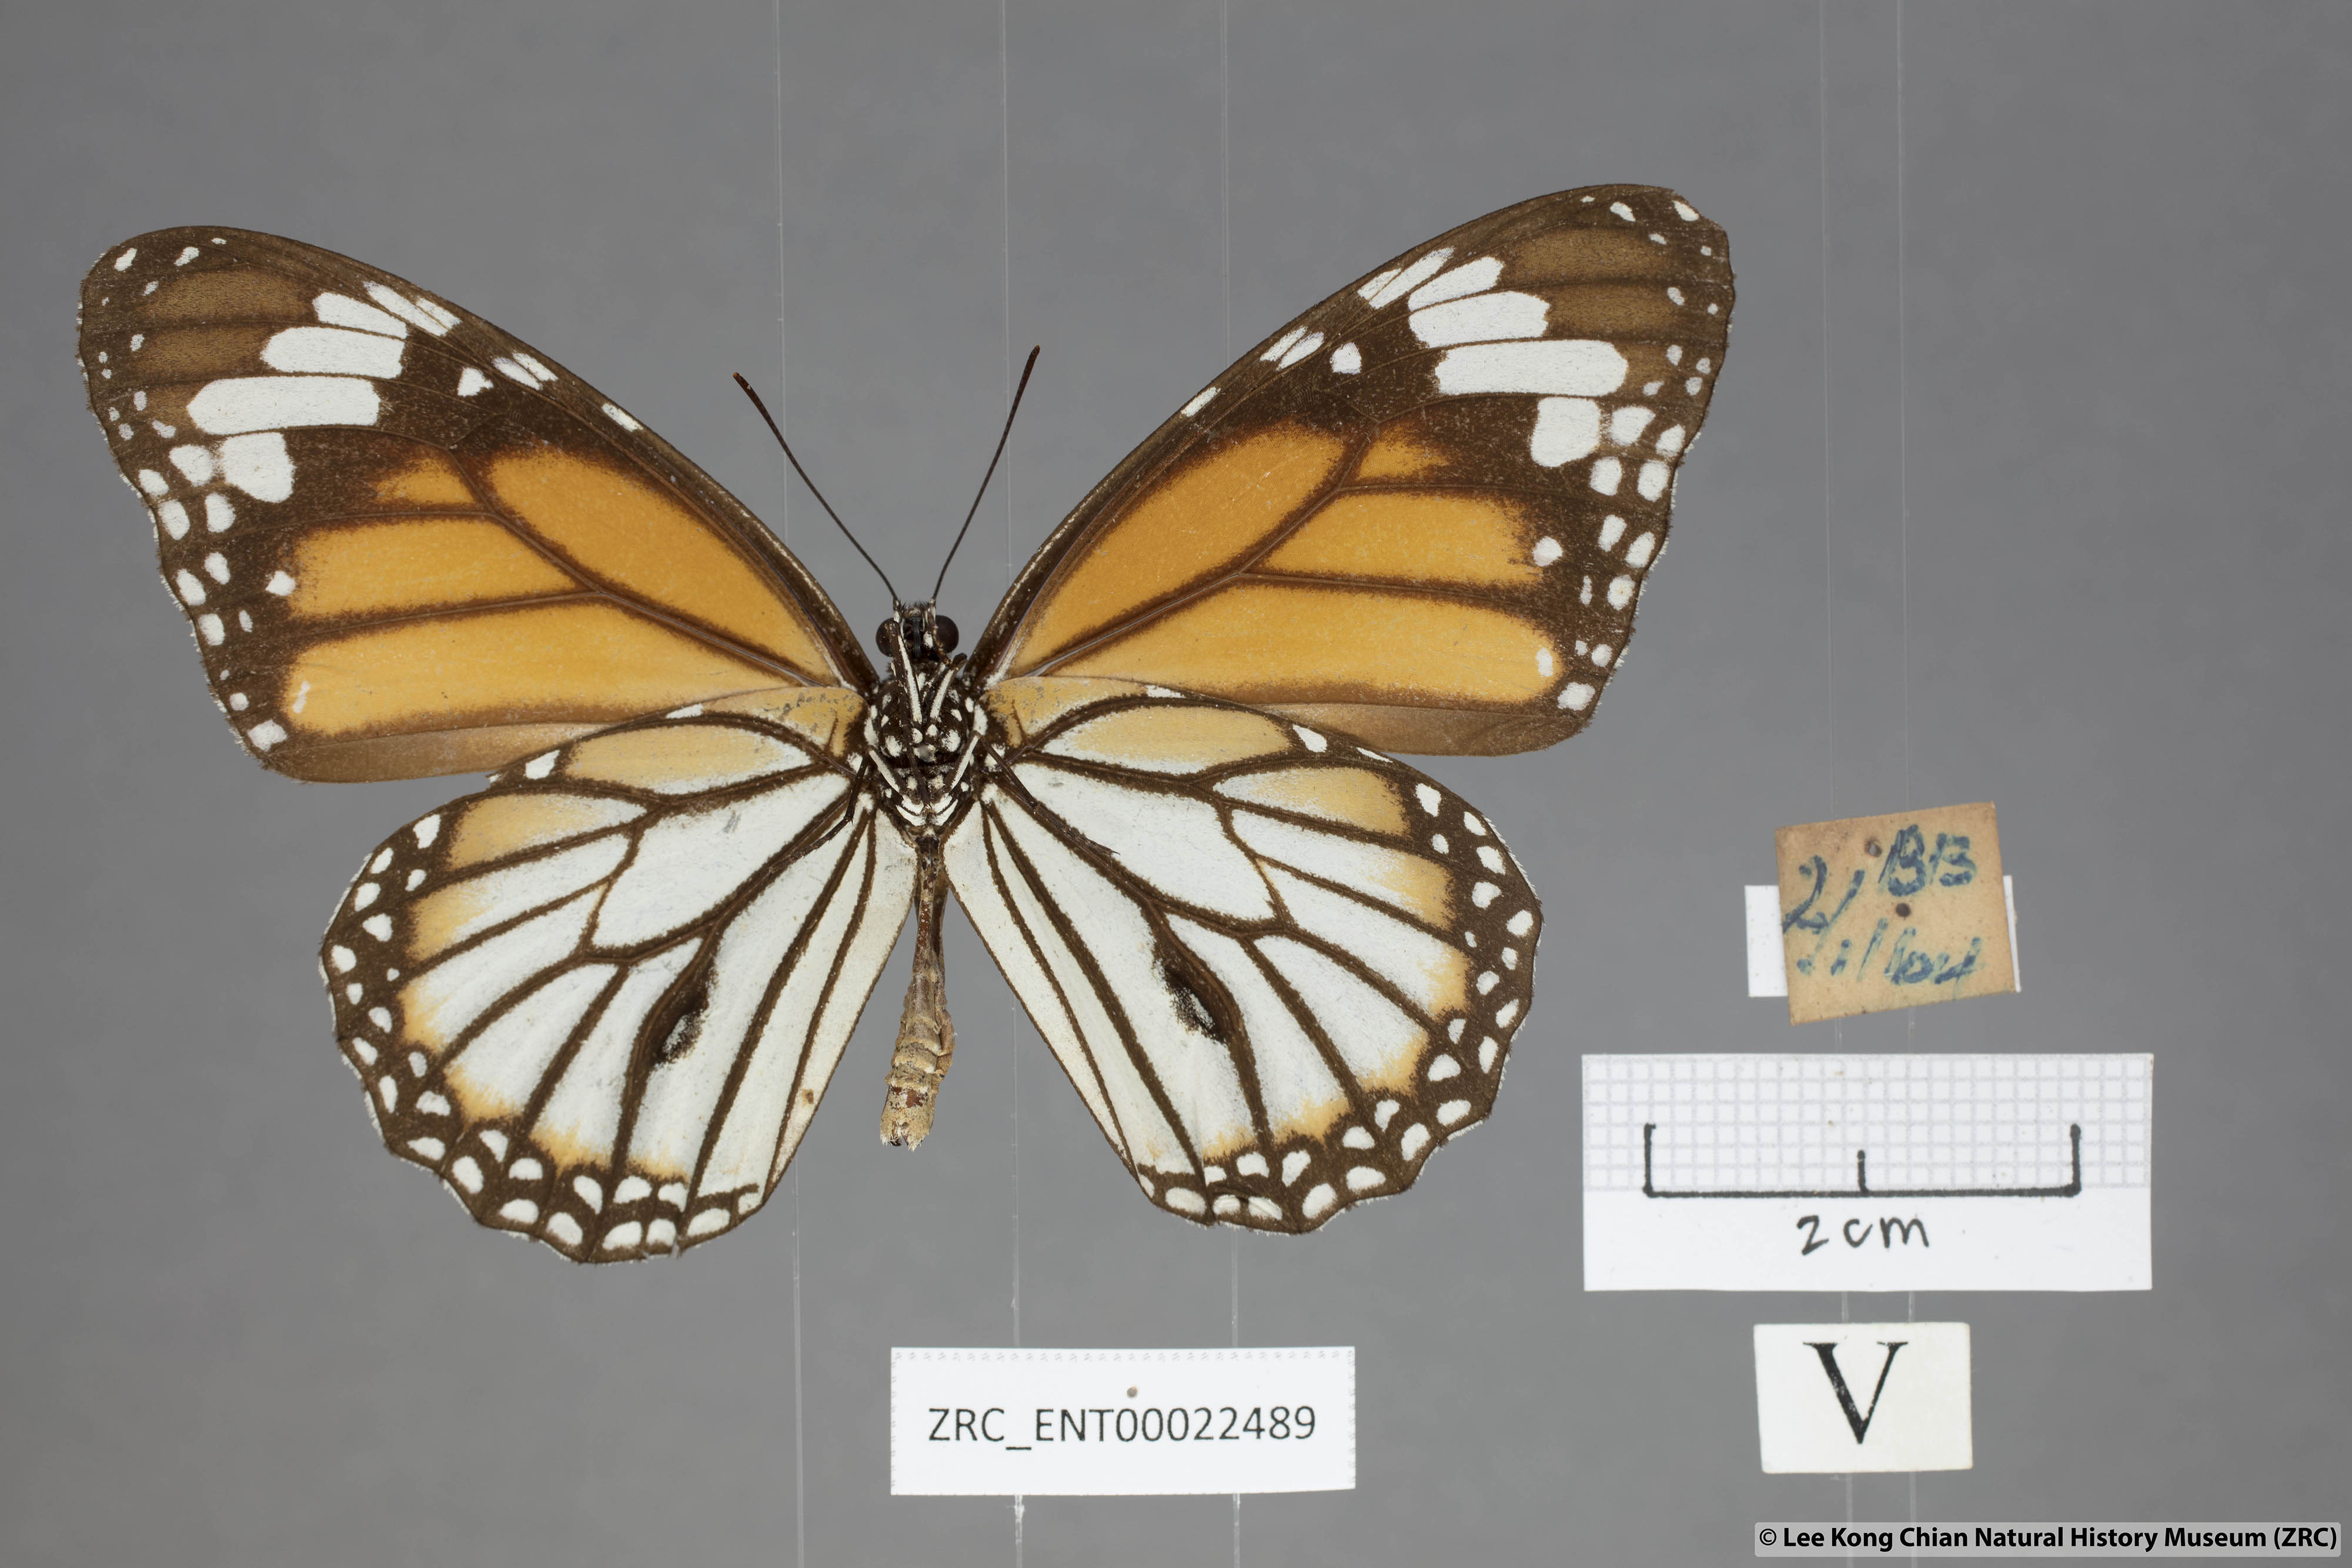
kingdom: Animalia
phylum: Arthropoda
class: Insecta
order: Lepidoptera
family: Nymphalidae
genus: Danaus
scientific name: Danaus genutia
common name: Common tiger butterfly
